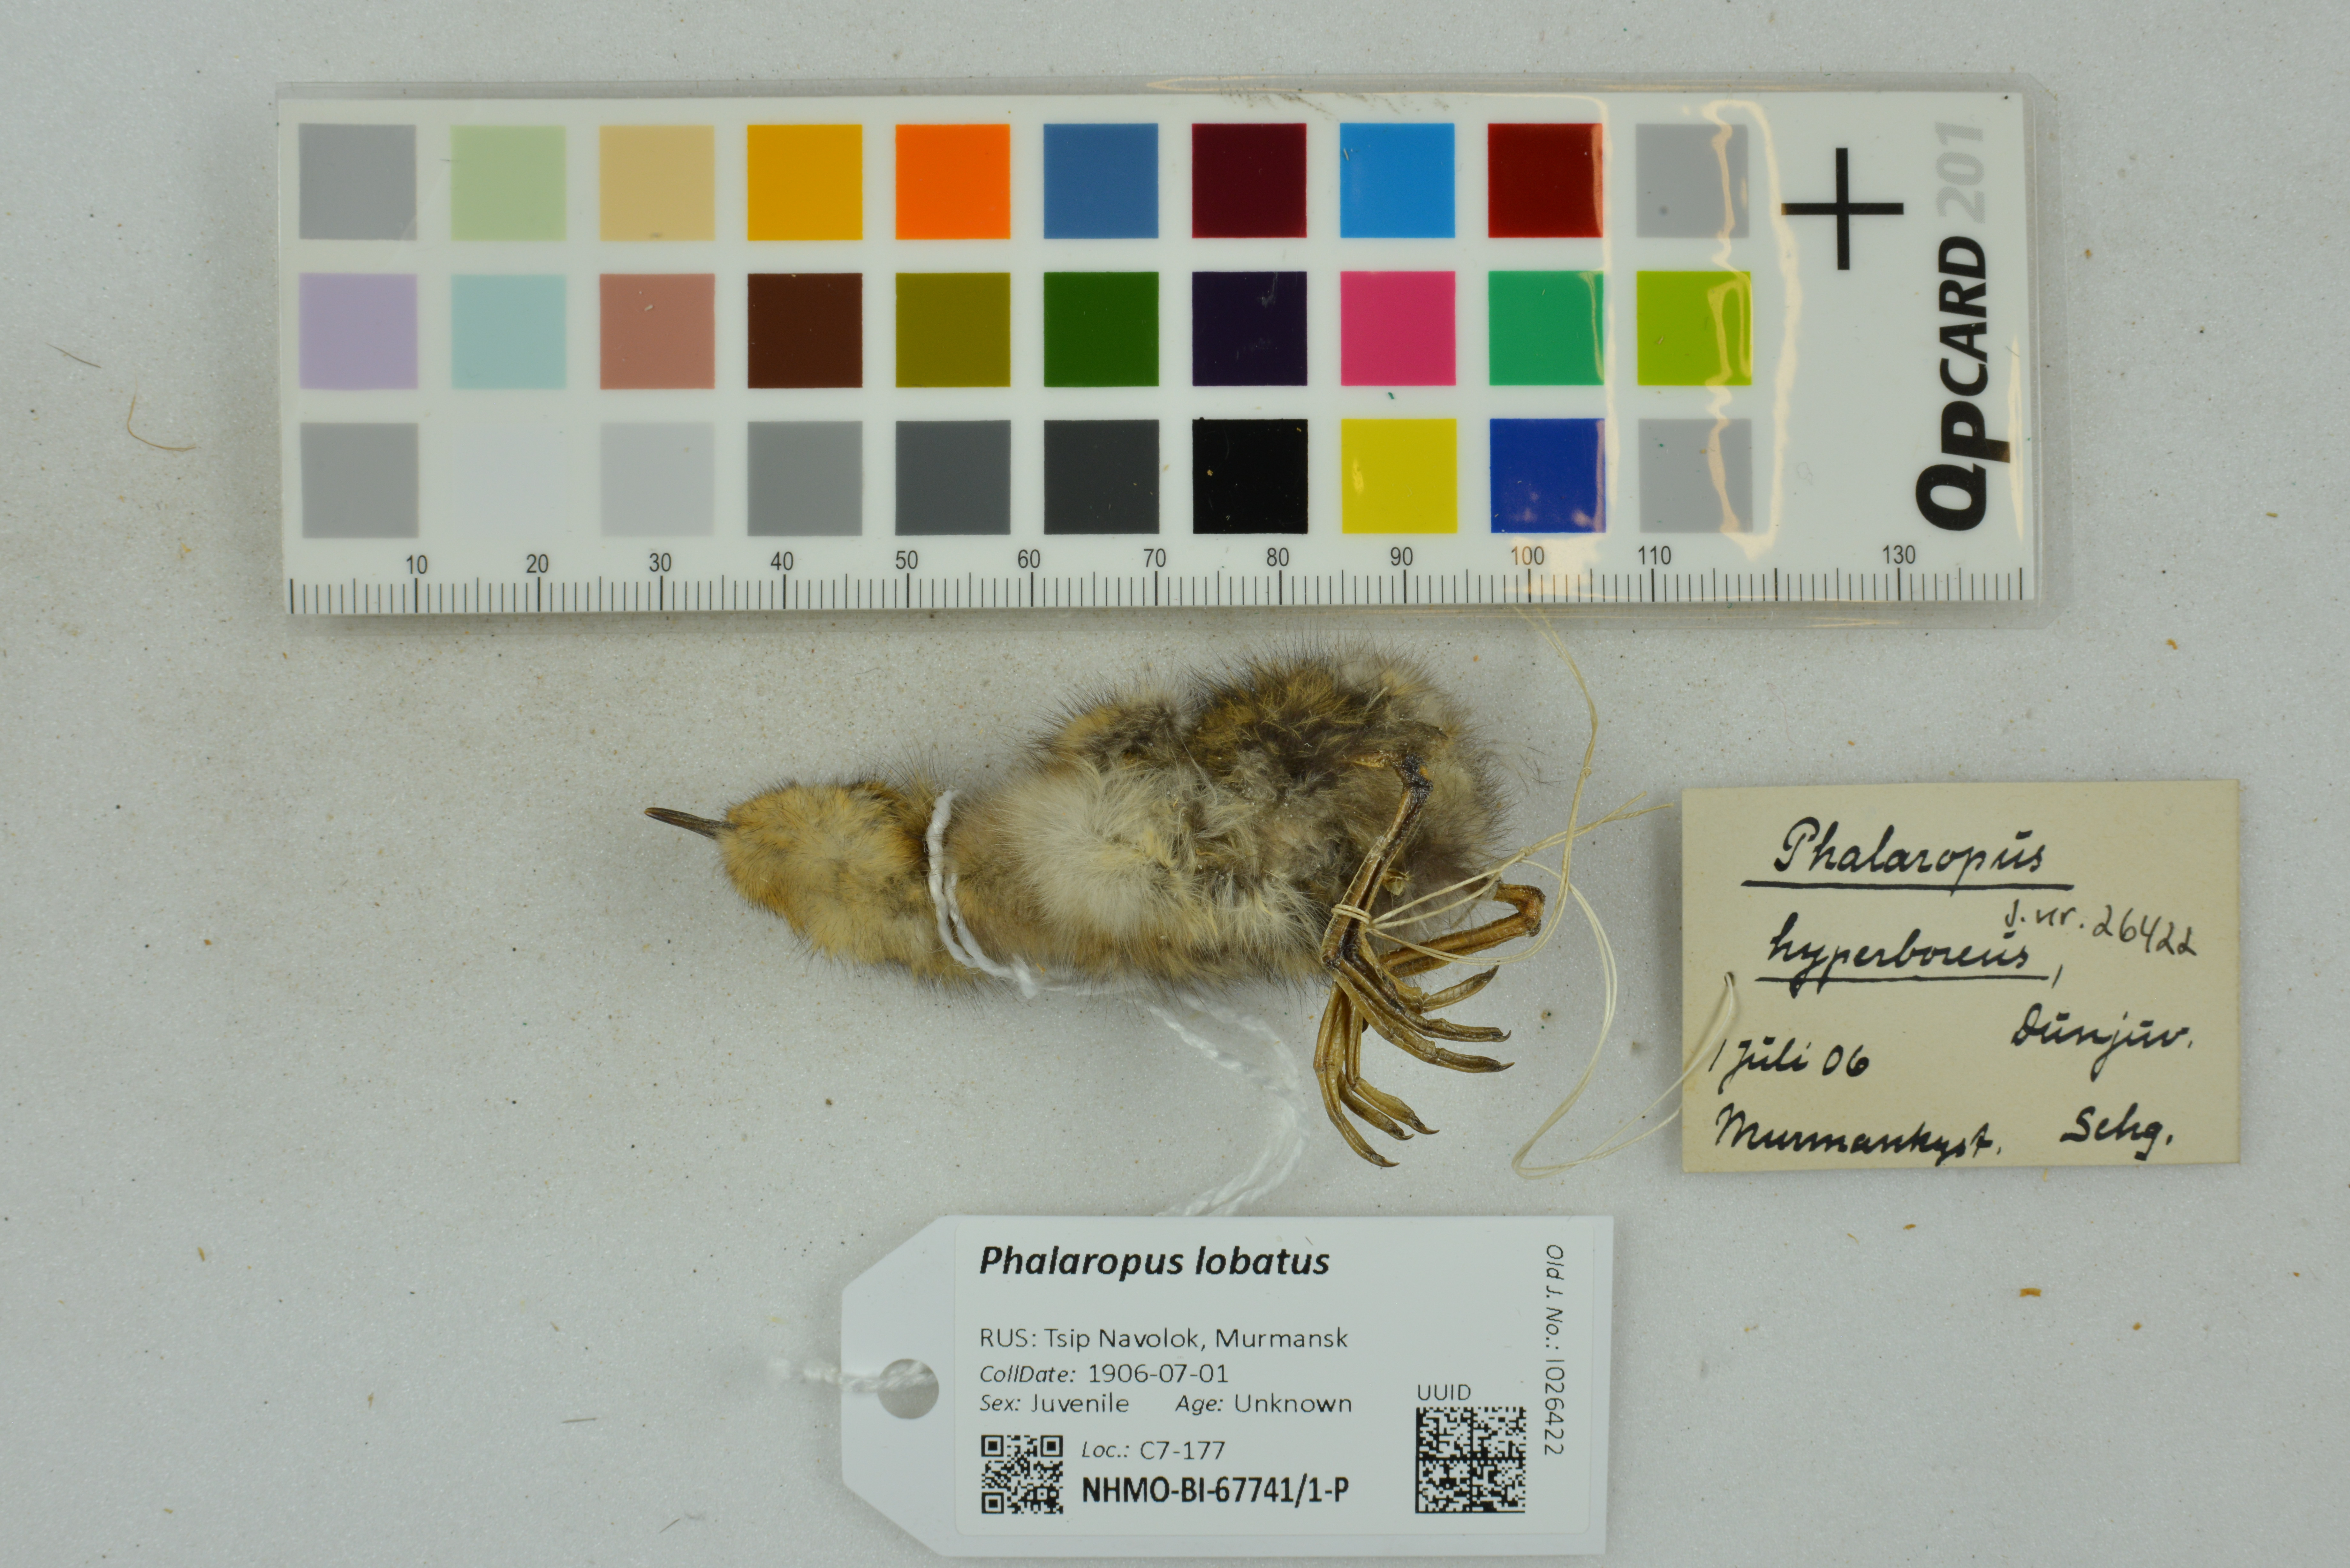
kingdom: Animalia
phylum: Chordata
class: Aves
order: Charadriiformes
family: Scolopacidae
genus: Phalaropus
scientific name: Phalaropus lobatus
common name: Red-necked phalarope
